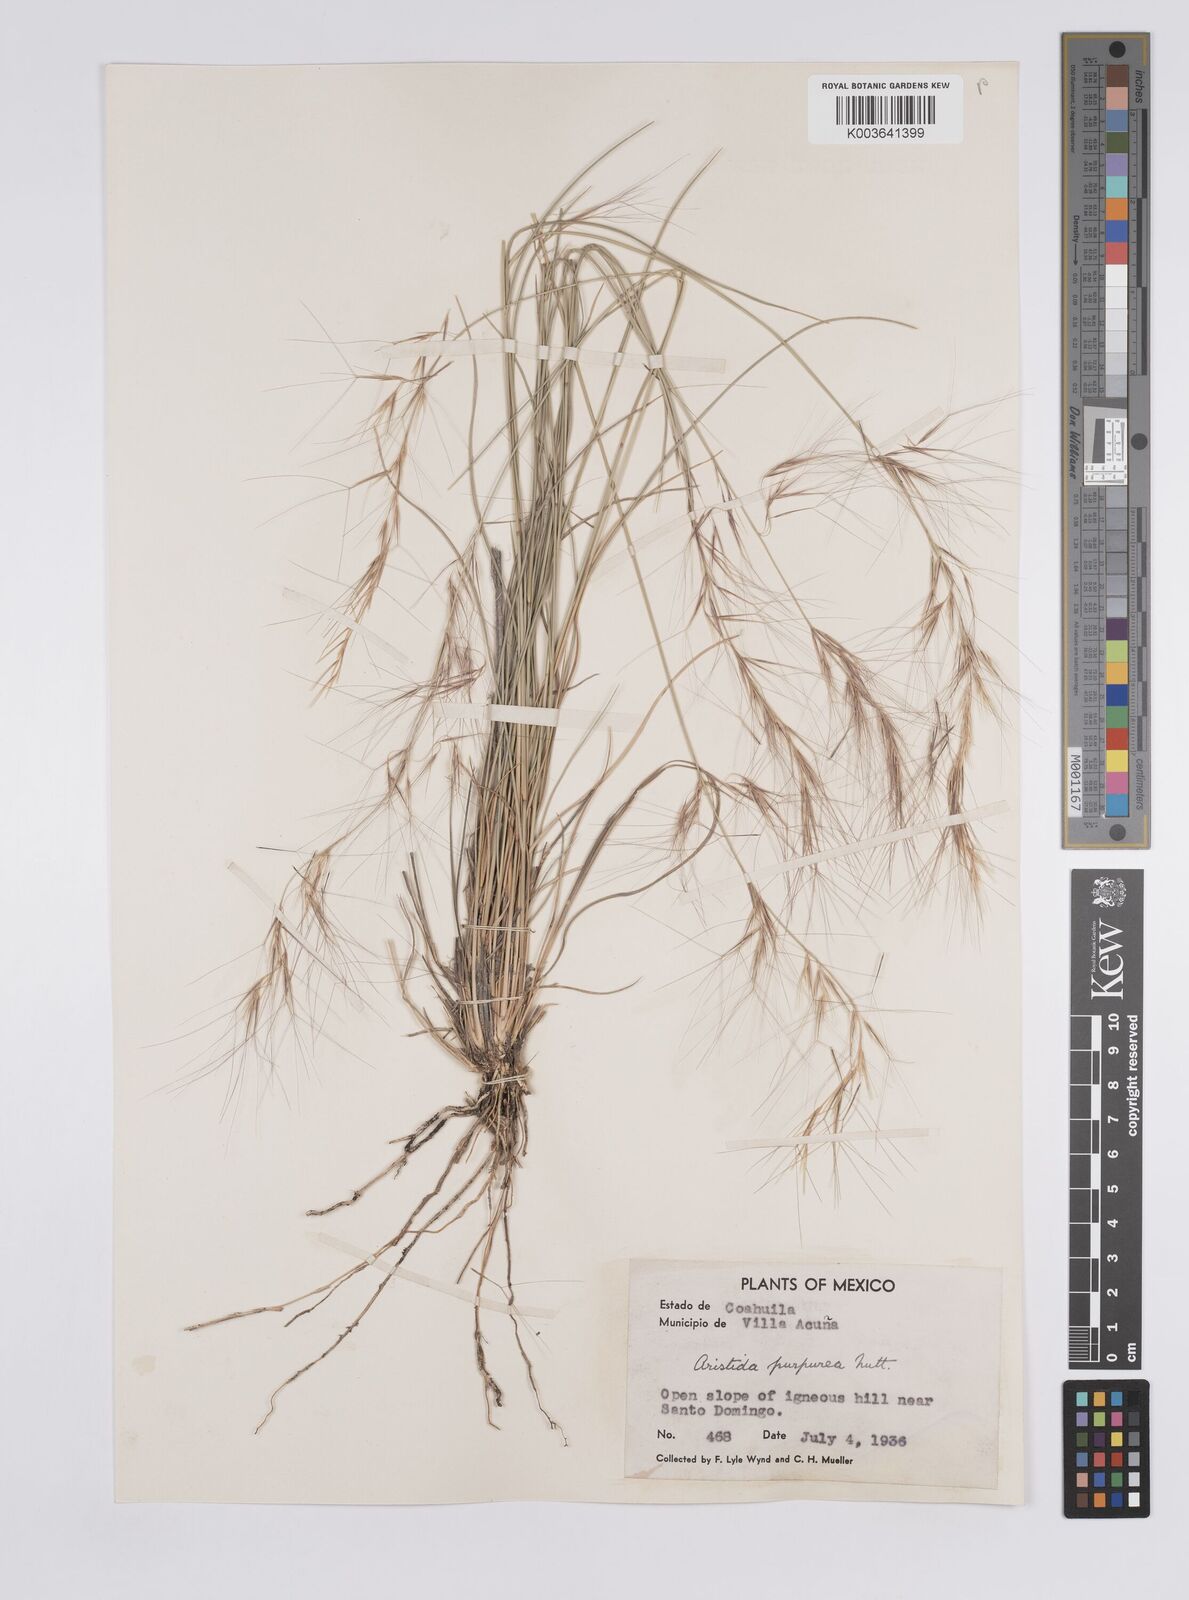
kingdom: Plantae
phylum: Tracheophyta
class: Liliopsida
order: Poales
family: Poaceae
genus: Aristida
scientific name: Aristida purpurea
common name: Purple threeawn
